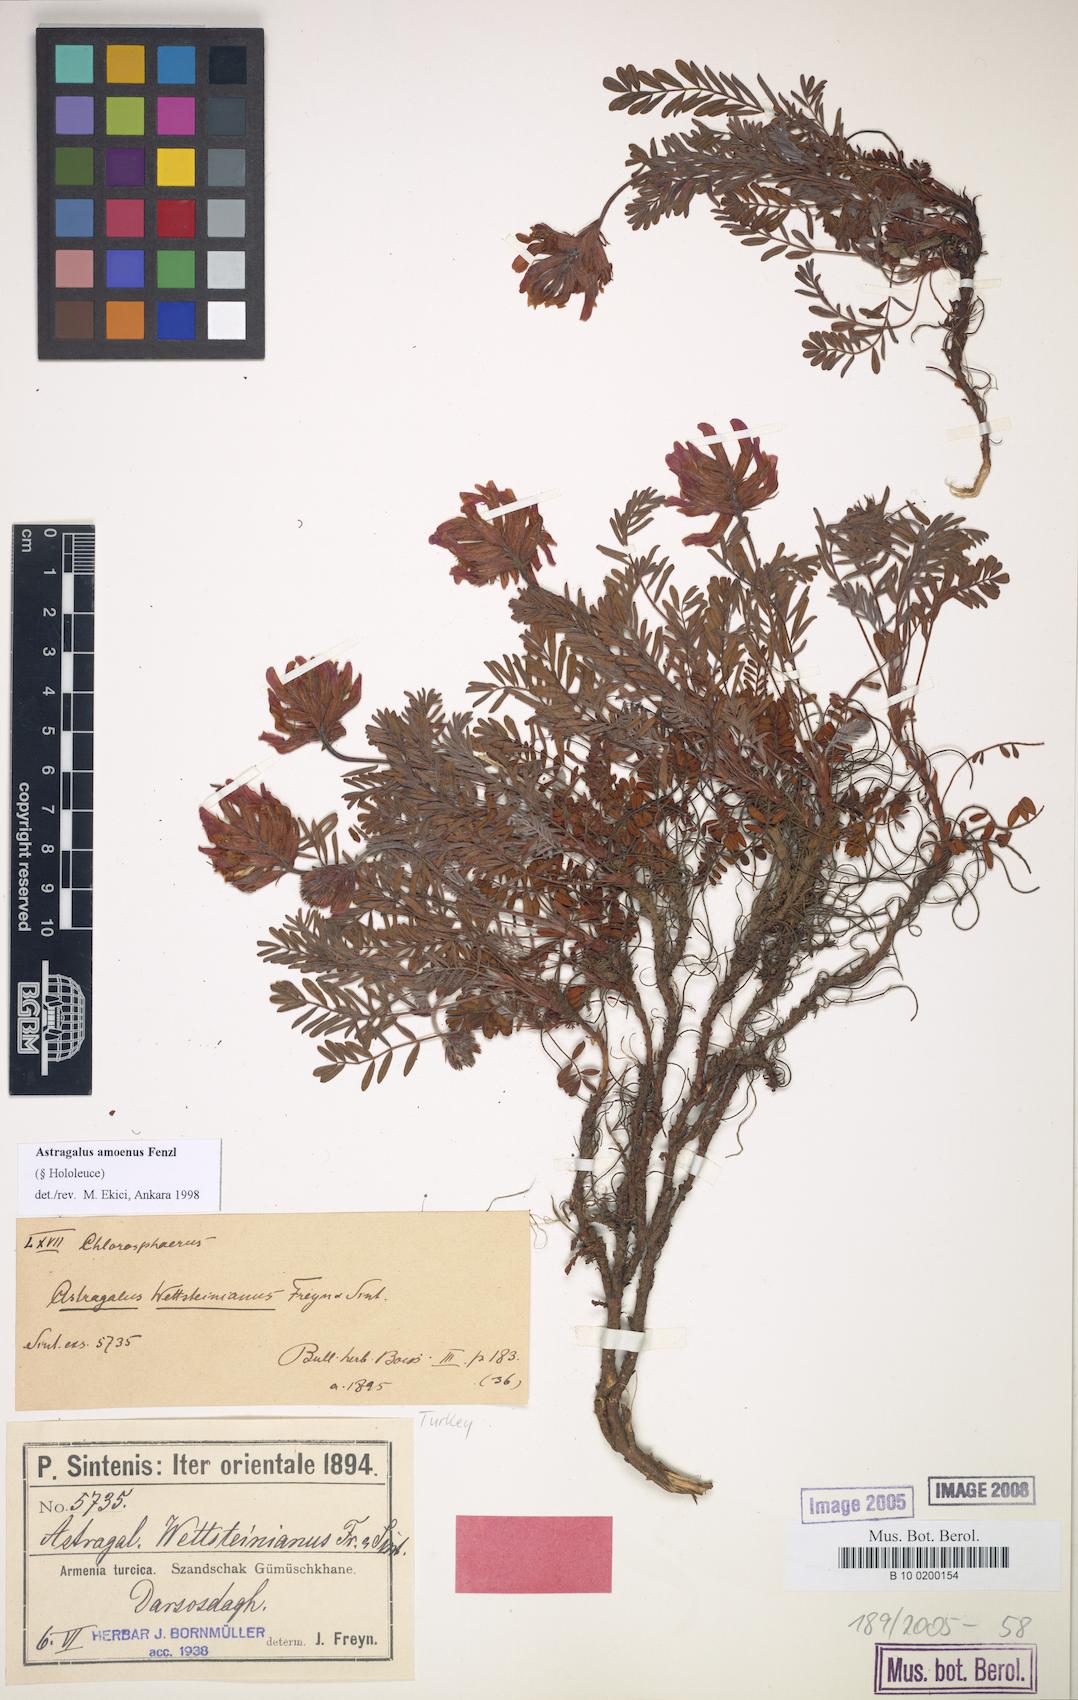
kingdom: Plantae
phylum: Tracheophyta
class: Magnoliopsida
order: Fabales
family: Fabaceae
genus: Astragalus
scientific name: Astragalus amoenus
